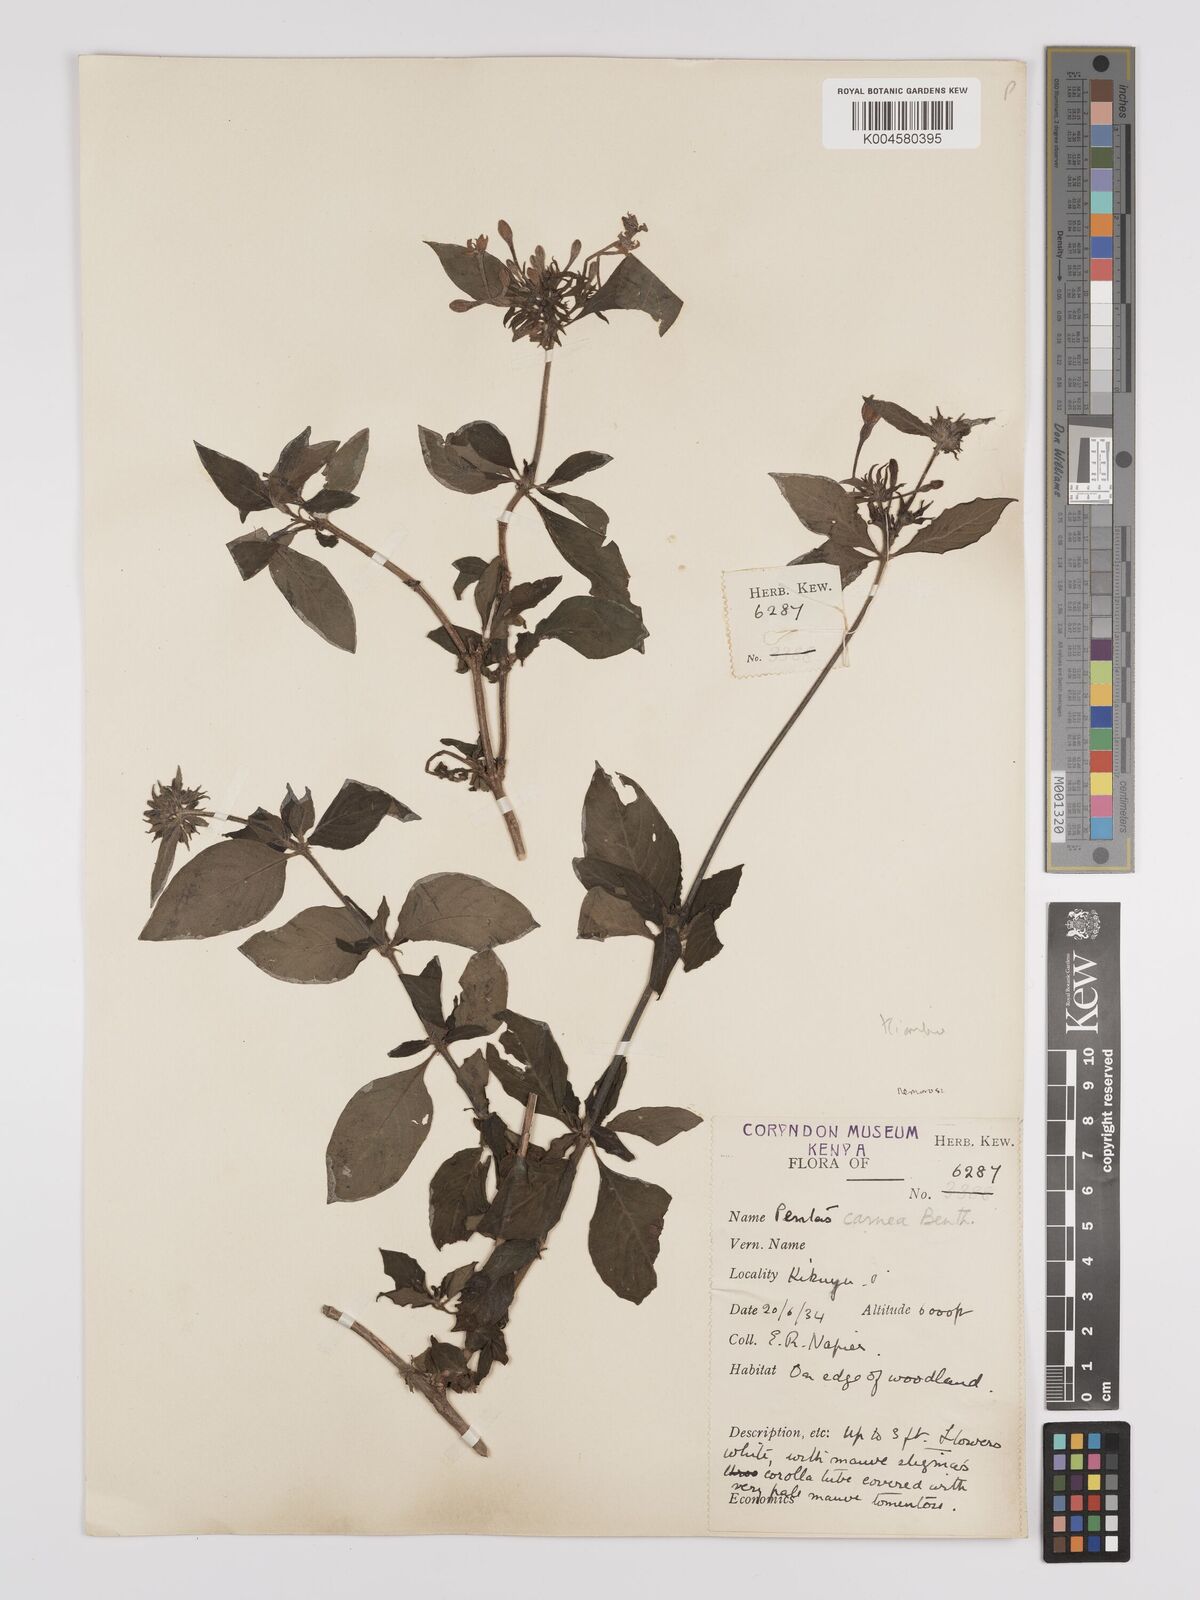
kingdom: Plantae
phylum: Tracheophyta
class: Magnoliopsida
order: Gentianales
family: Rubiaceae
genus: Pentas
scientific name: Pentas
